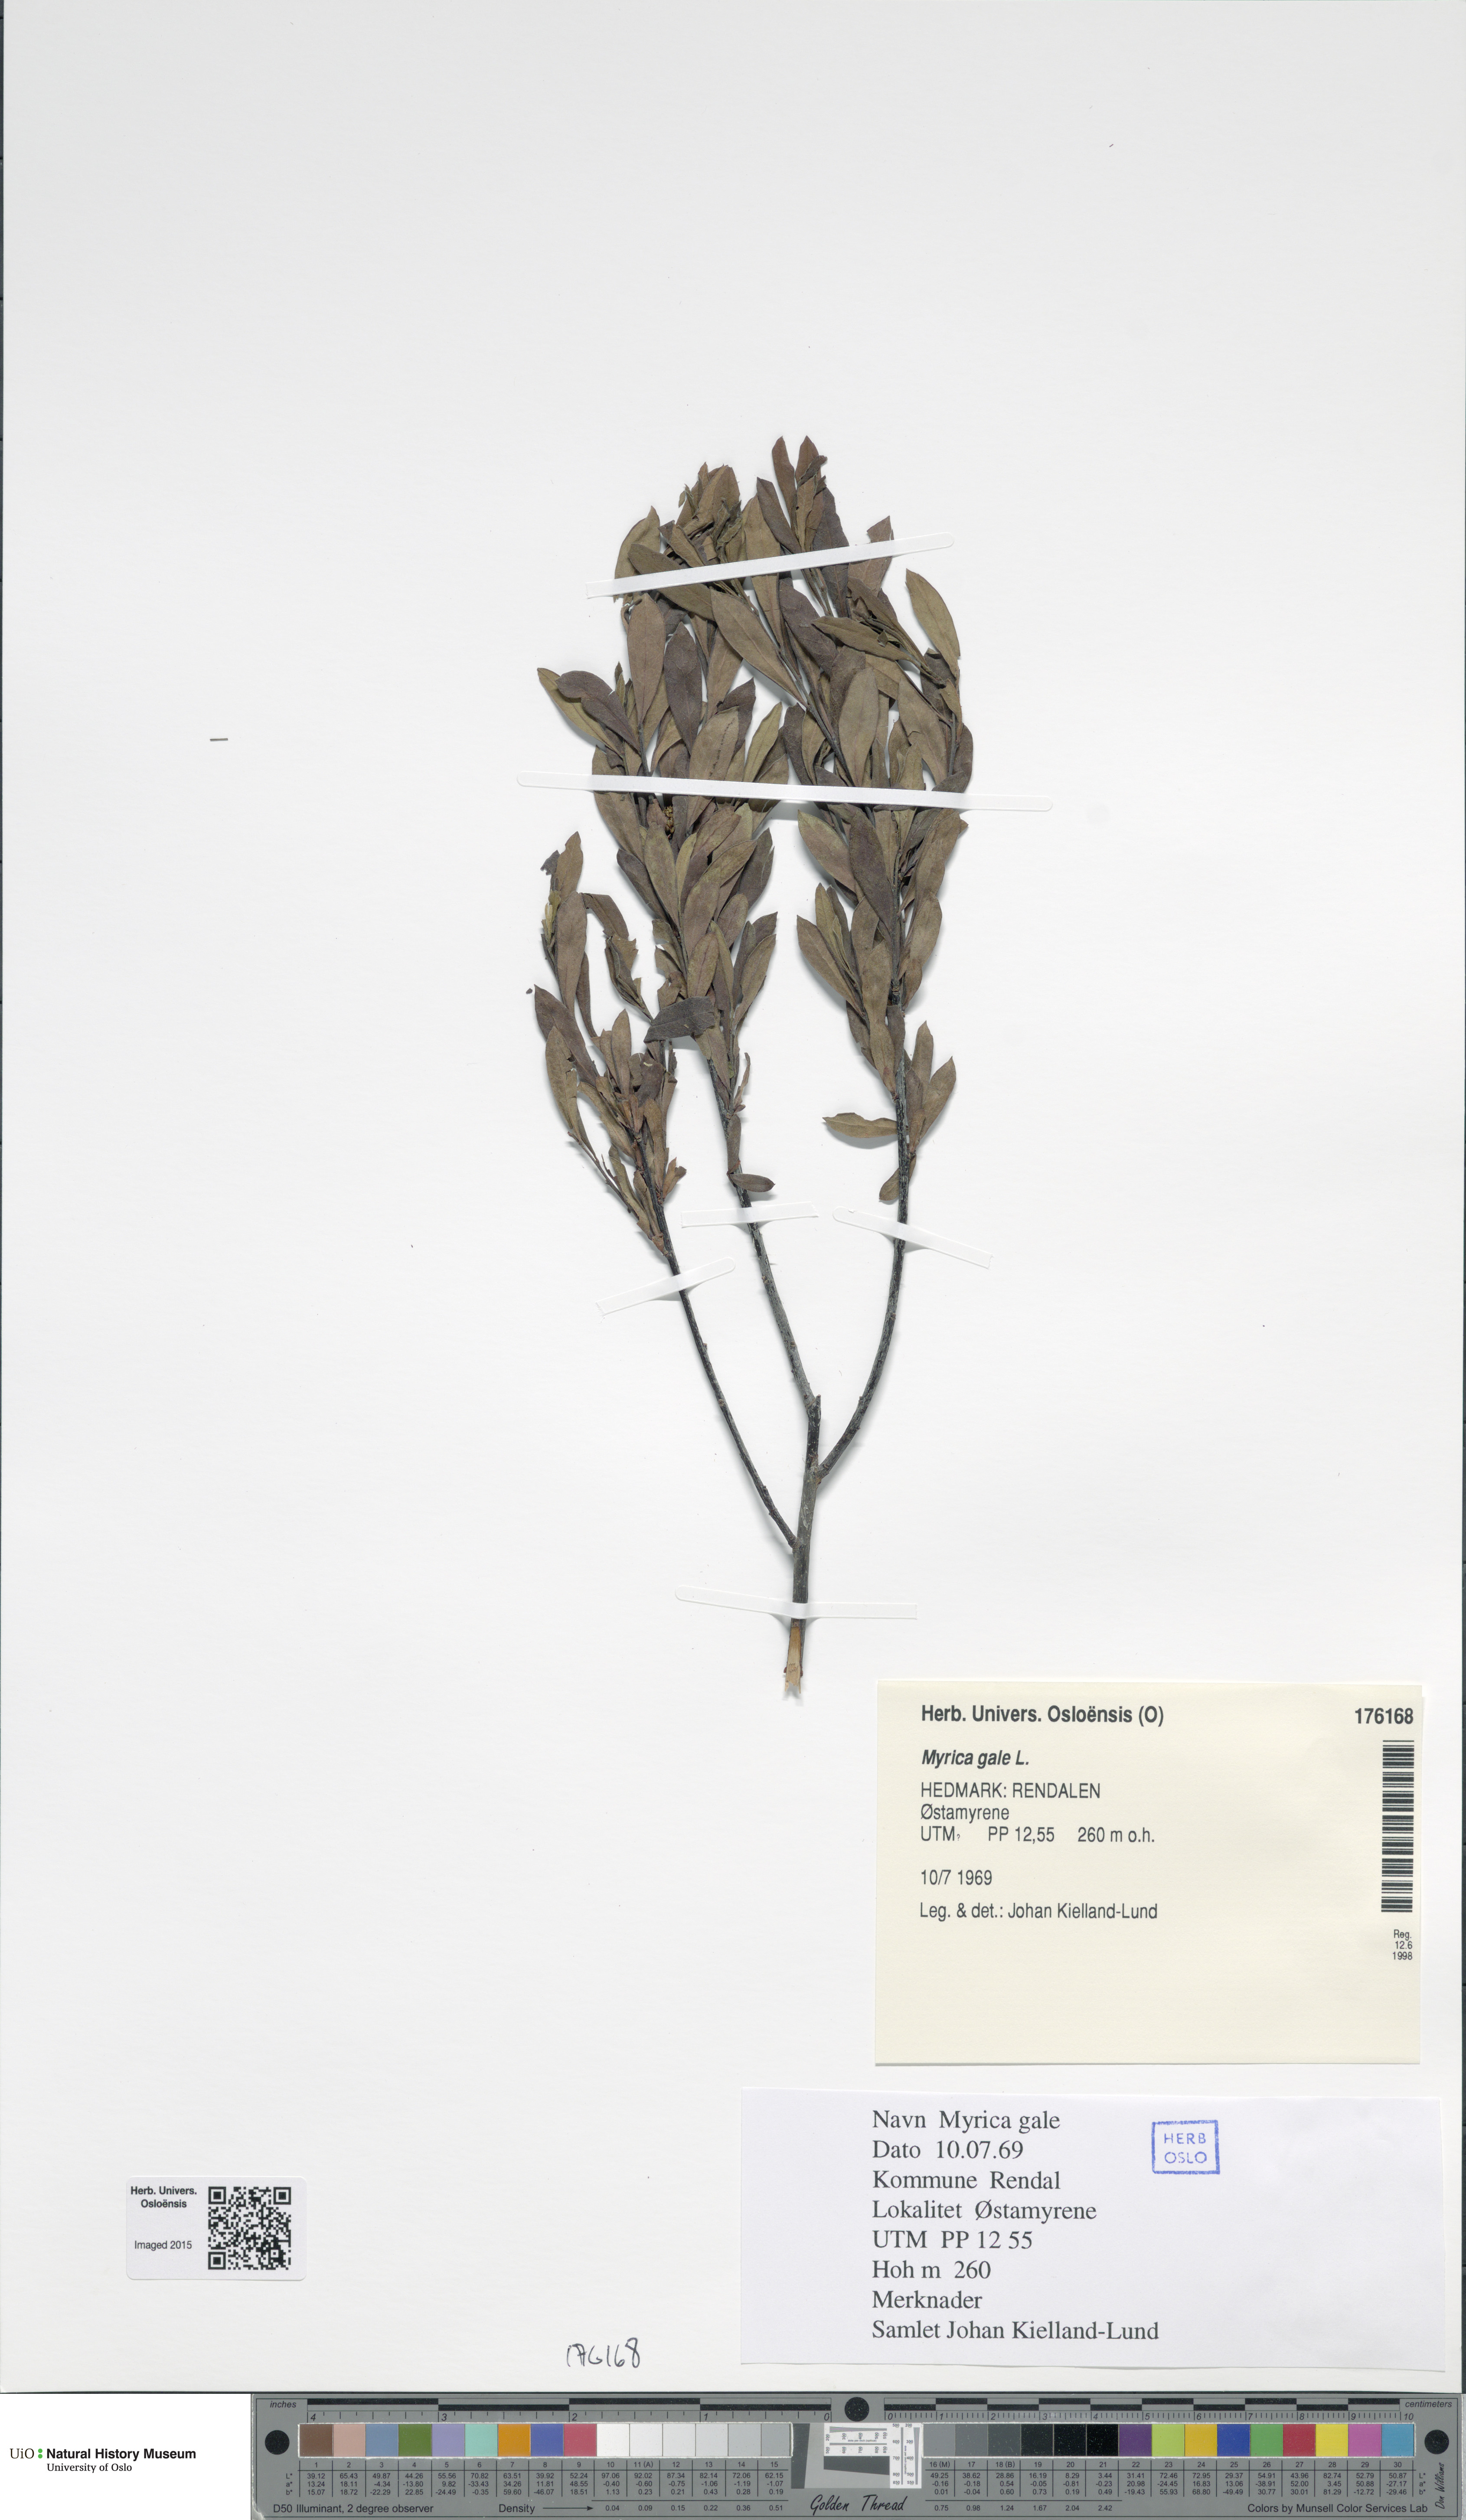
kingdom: Plantae
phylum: Tracheophyta
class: Magnoliopsida
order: Fagales
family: Myricaceae
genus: Myrica
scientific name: Myrica gale
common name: Sweet gale
